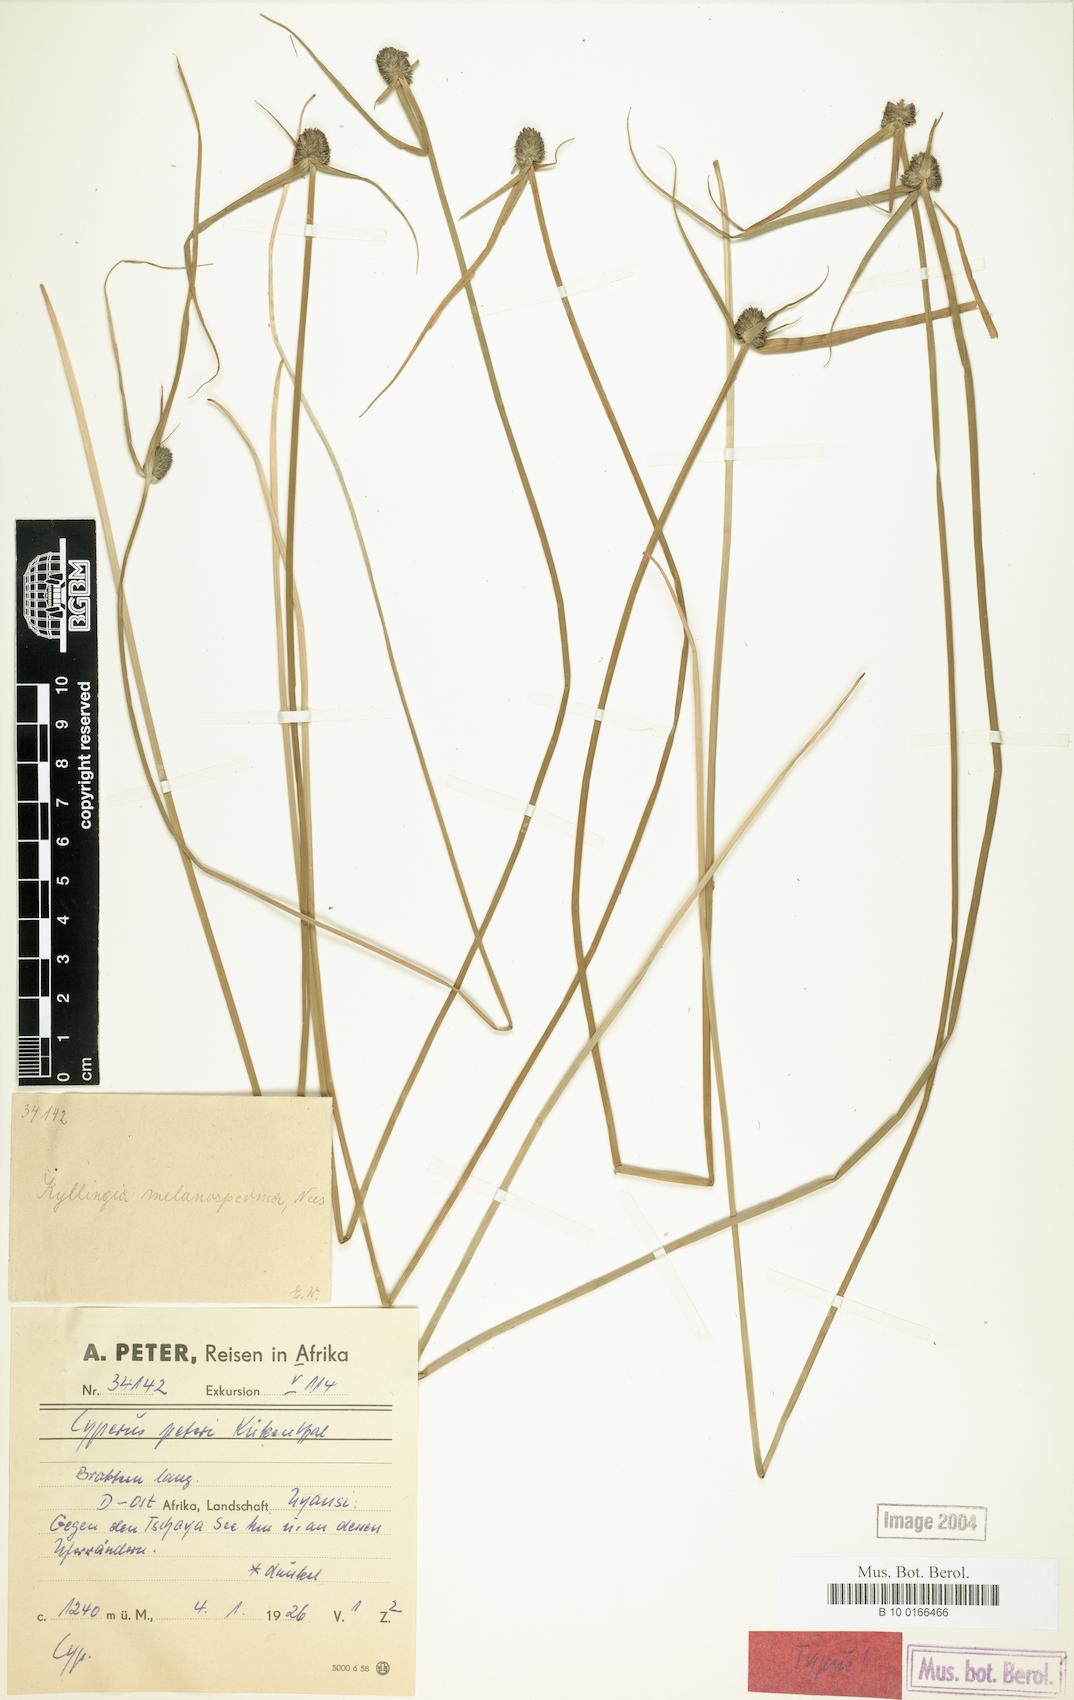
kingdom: Plantae
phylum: Tracheophyta
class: Liliopsida
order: Poales
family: Cyperaceae
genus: Cyperus
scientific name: Cyperus peteri
